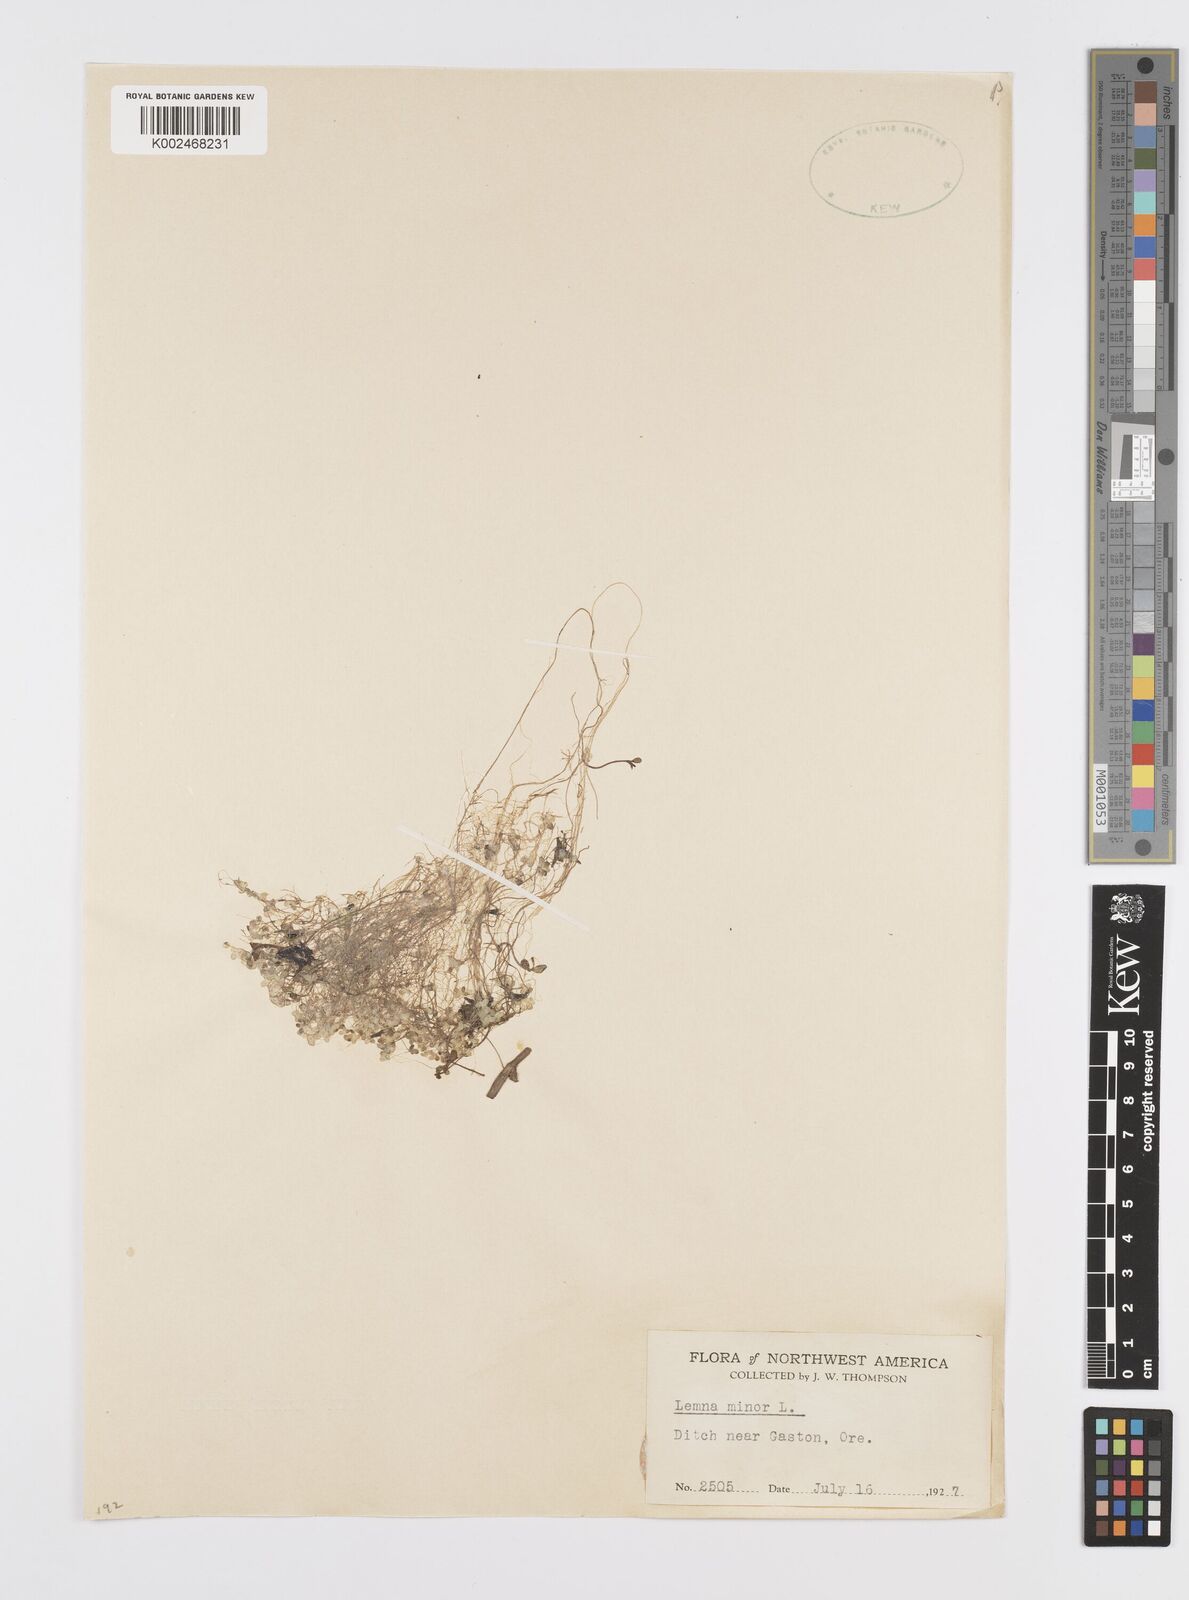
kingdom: Plantae
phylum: Tracheophyta
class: Liliopsida
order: Alismatales
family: Araceae
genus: Lemna
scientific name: Lemna minor
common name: Common duckweed
